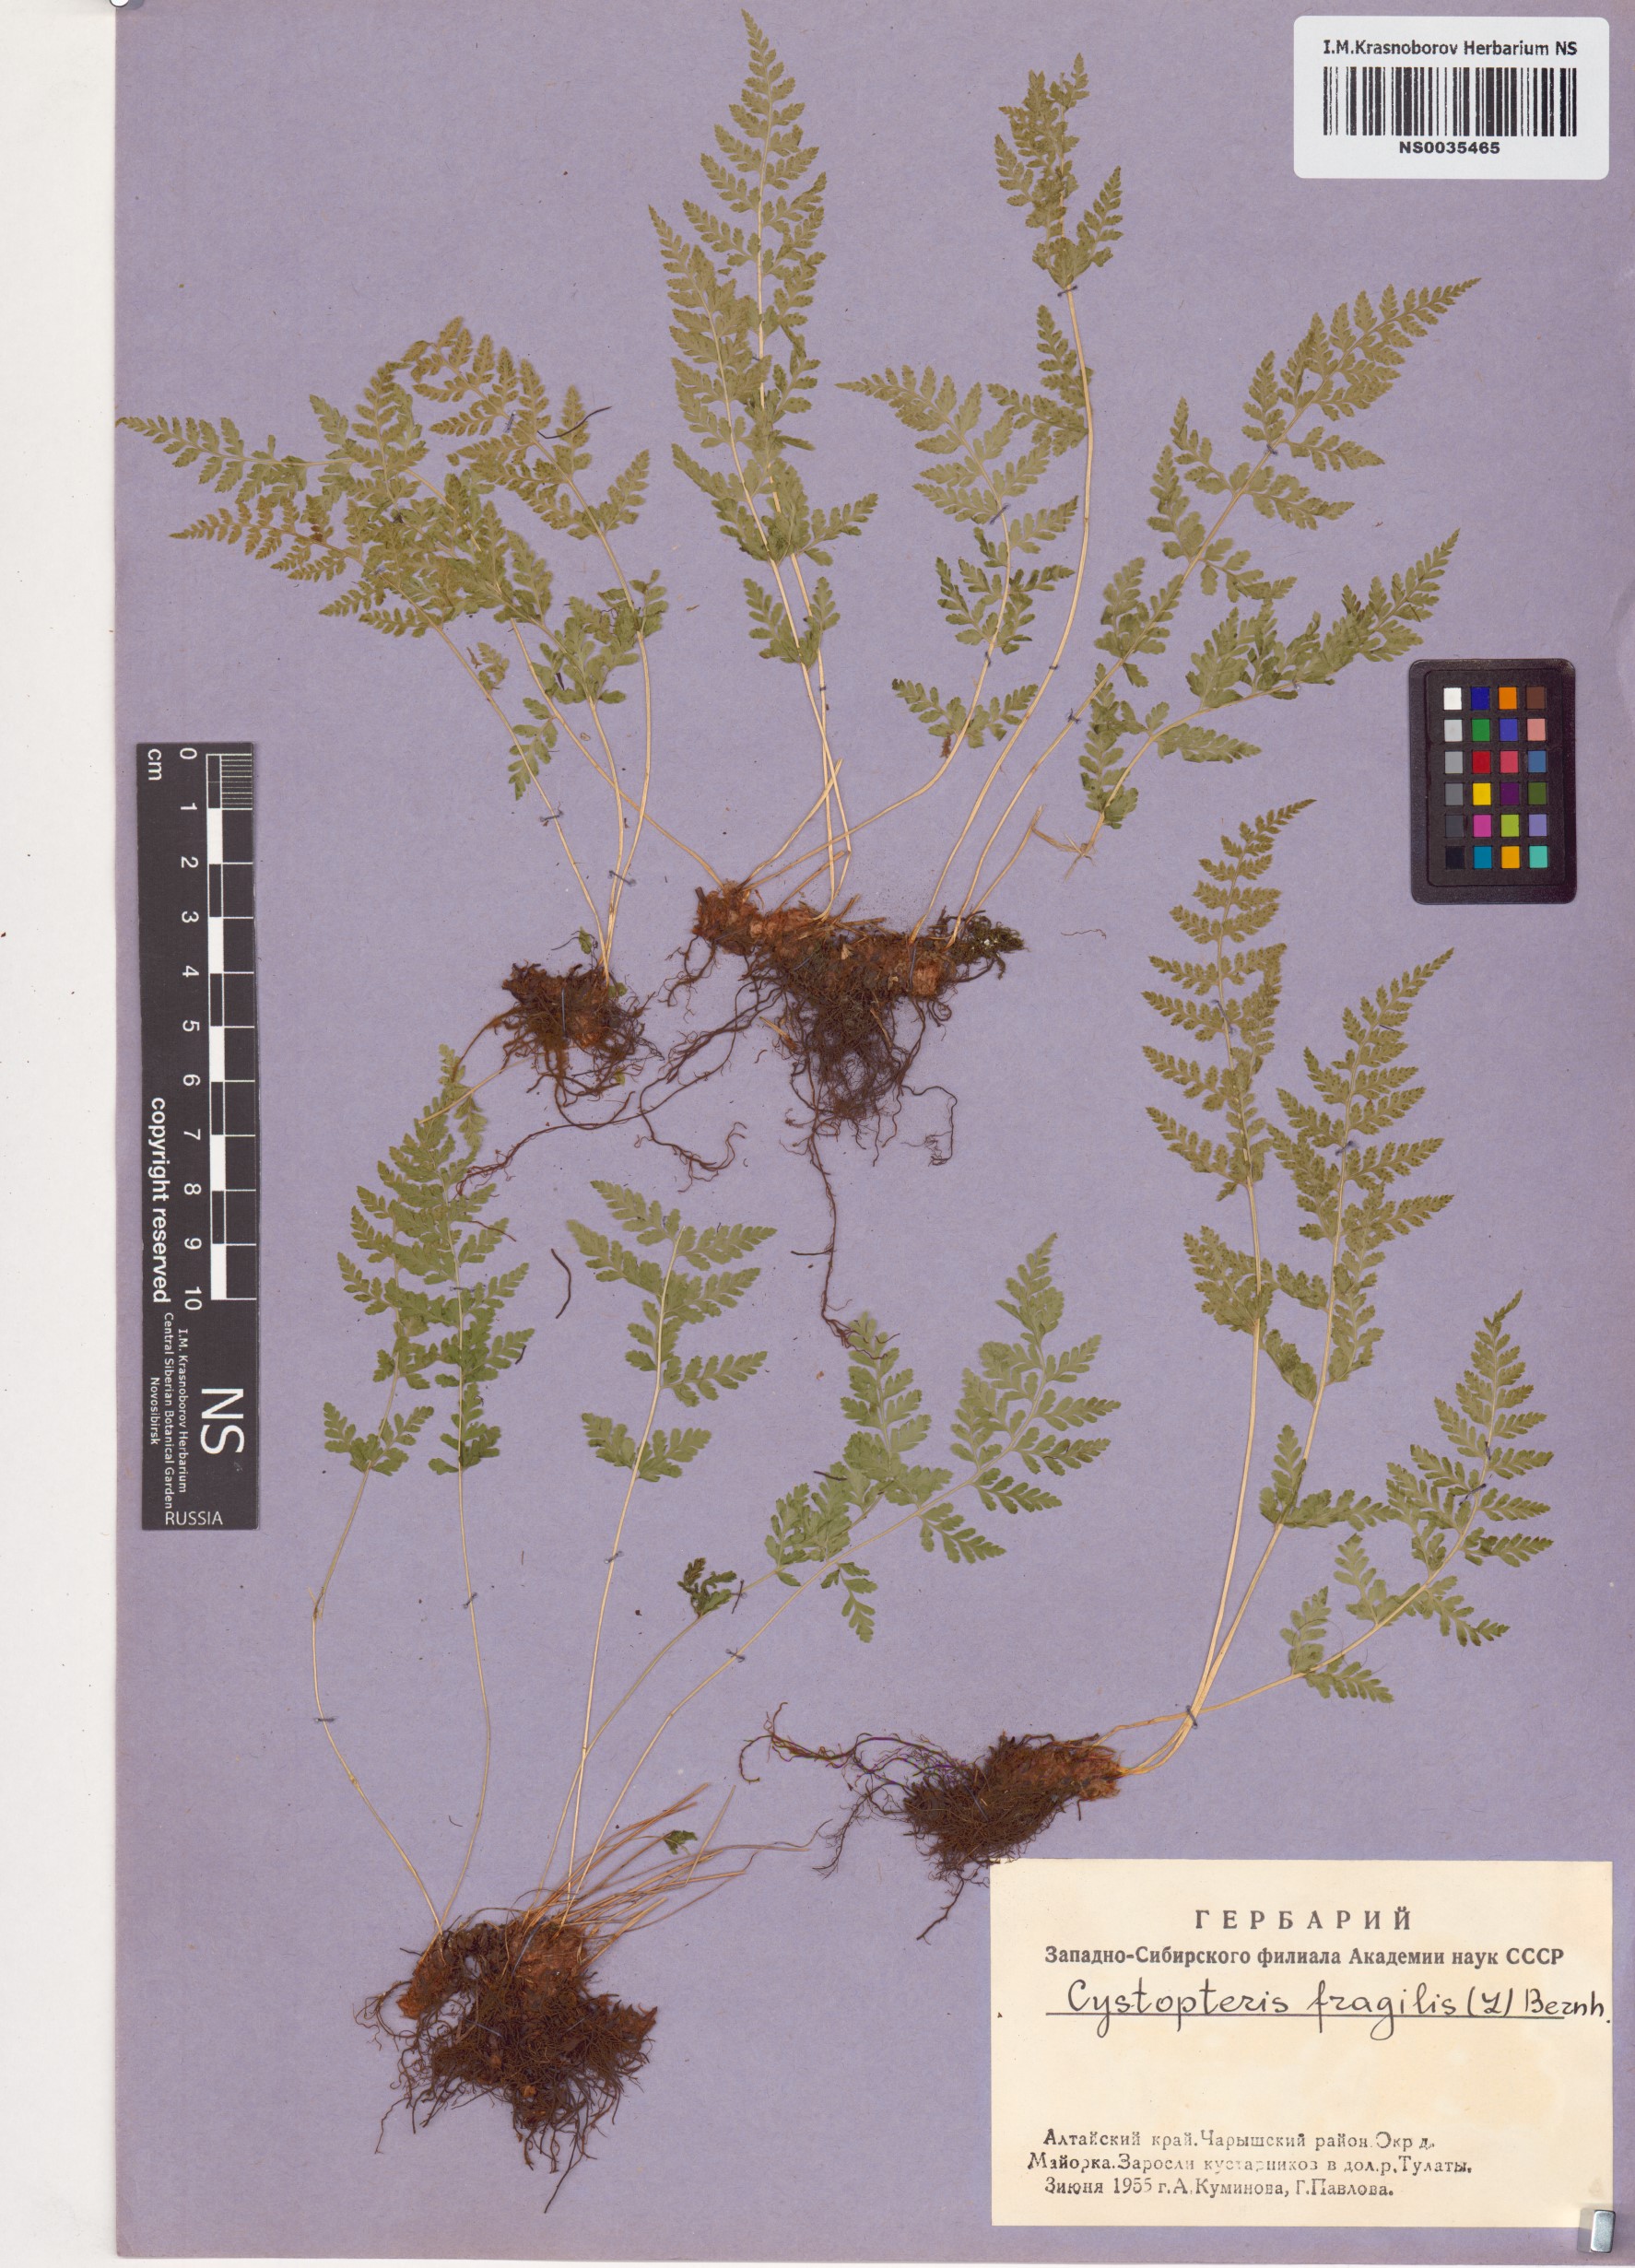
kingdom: Plantae
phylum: Tracheophyta
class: Polypodiopsida
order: Polypodiales
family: Cystopteridaceae
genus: Cystopteris
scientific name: Cystopteris fragilis
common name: Brittle bladder fern
